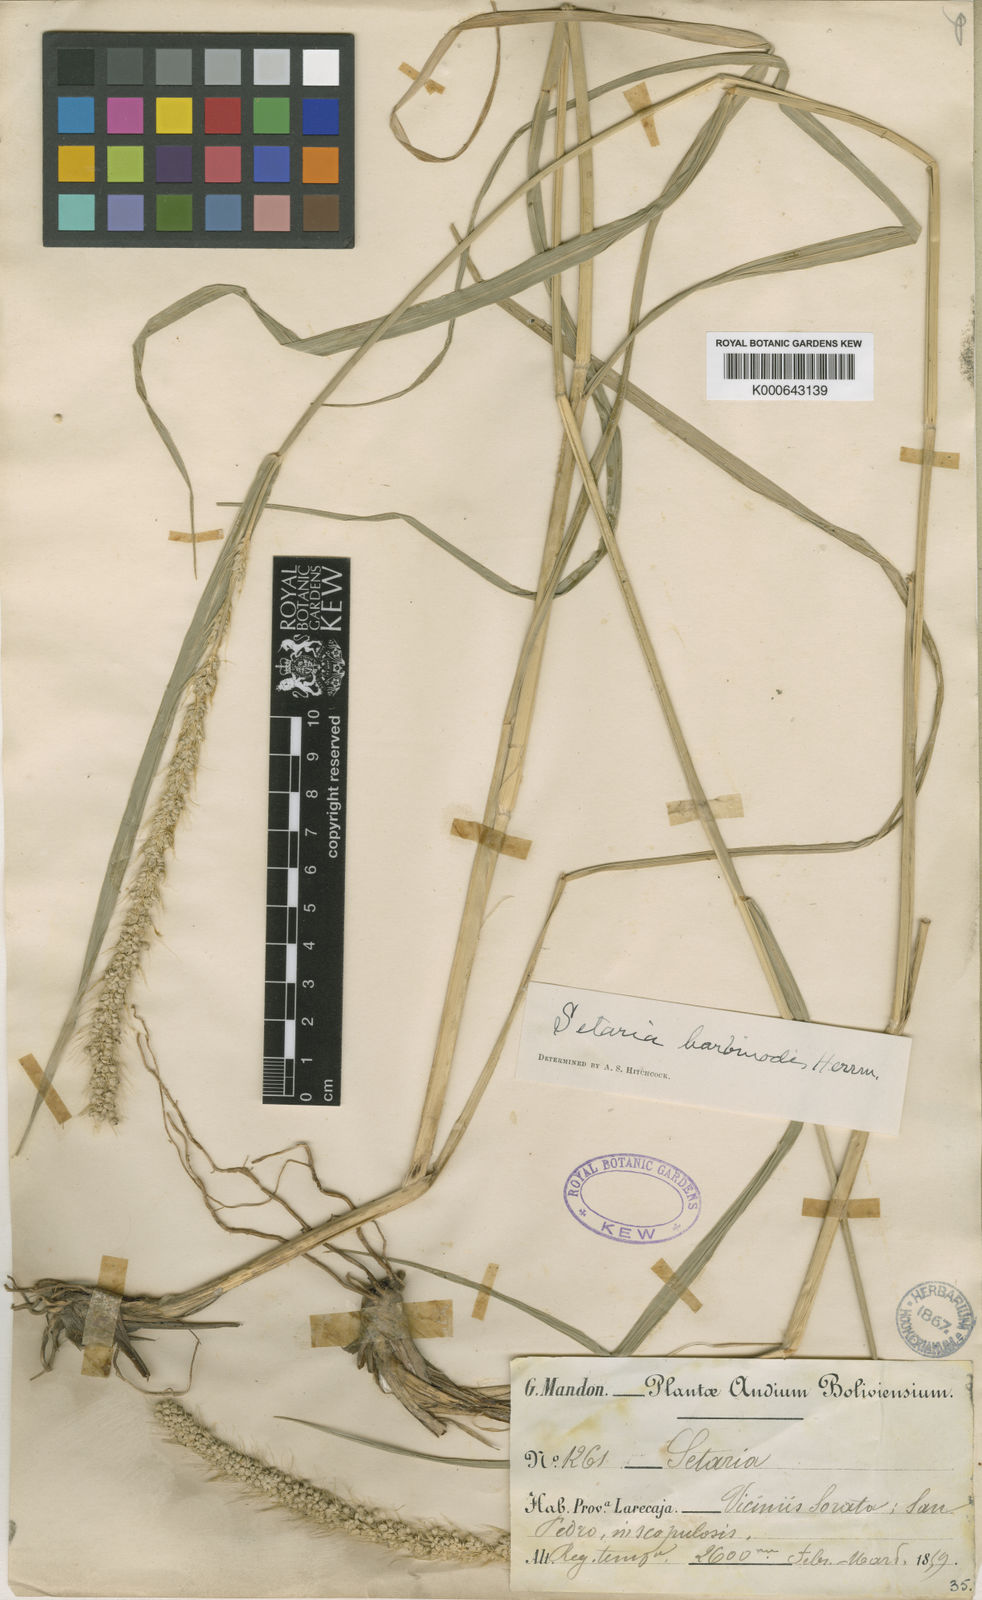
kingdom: Plantae
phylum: Tracheophyta
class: Liliopsida
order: Poales
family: Poaceae
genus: Setaria
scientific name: Setaria barbinodis
